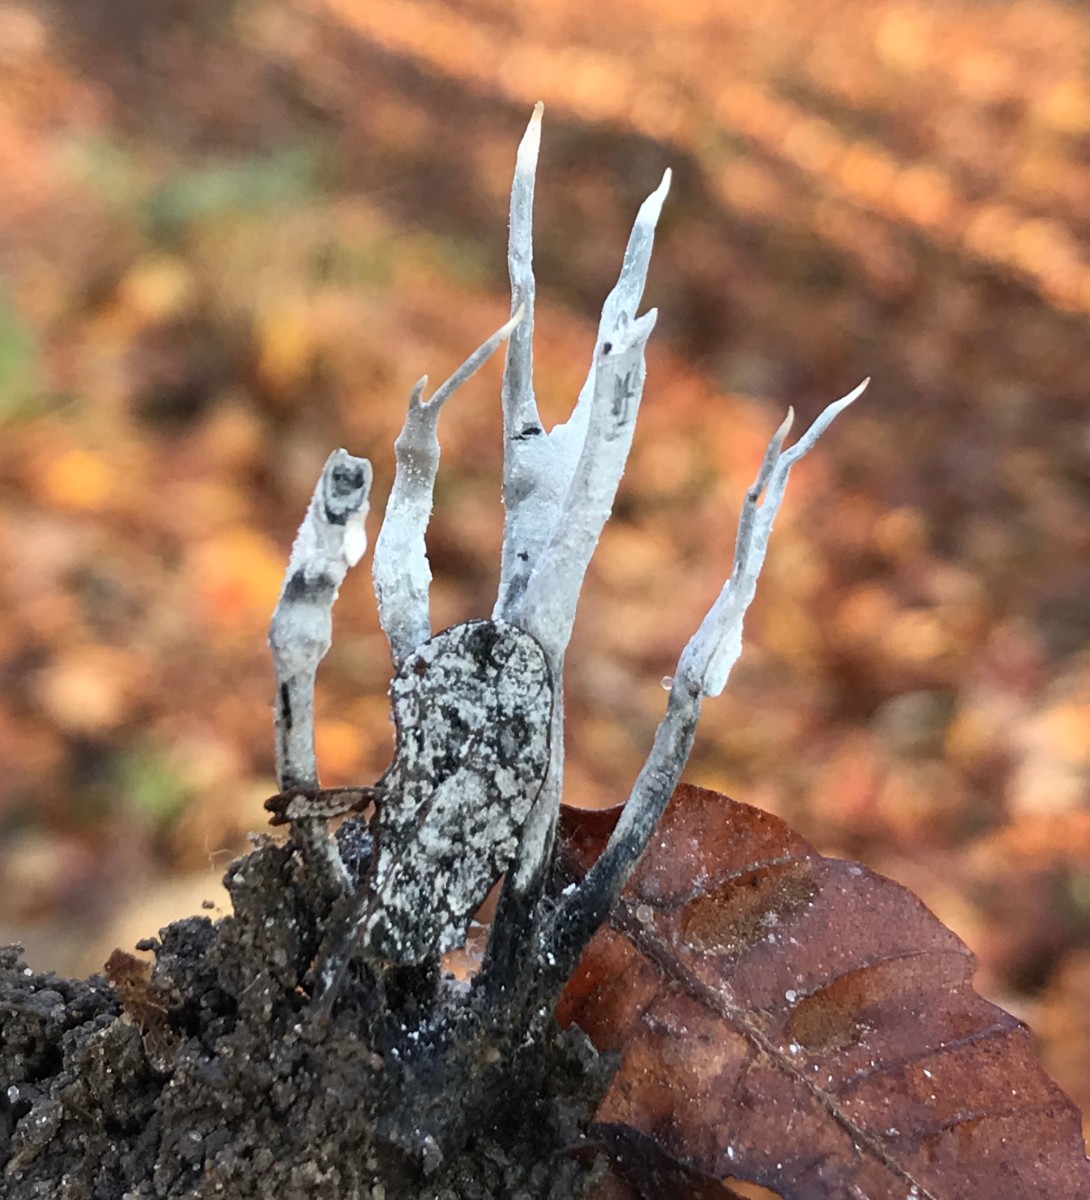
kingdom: Fungi
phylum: Ascomycota
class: Sordariomycetes
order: Xylariales
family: Xylariaceae
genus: Xylaria
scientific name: Xylaria hypoxylon
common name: grenet stødsvamp
